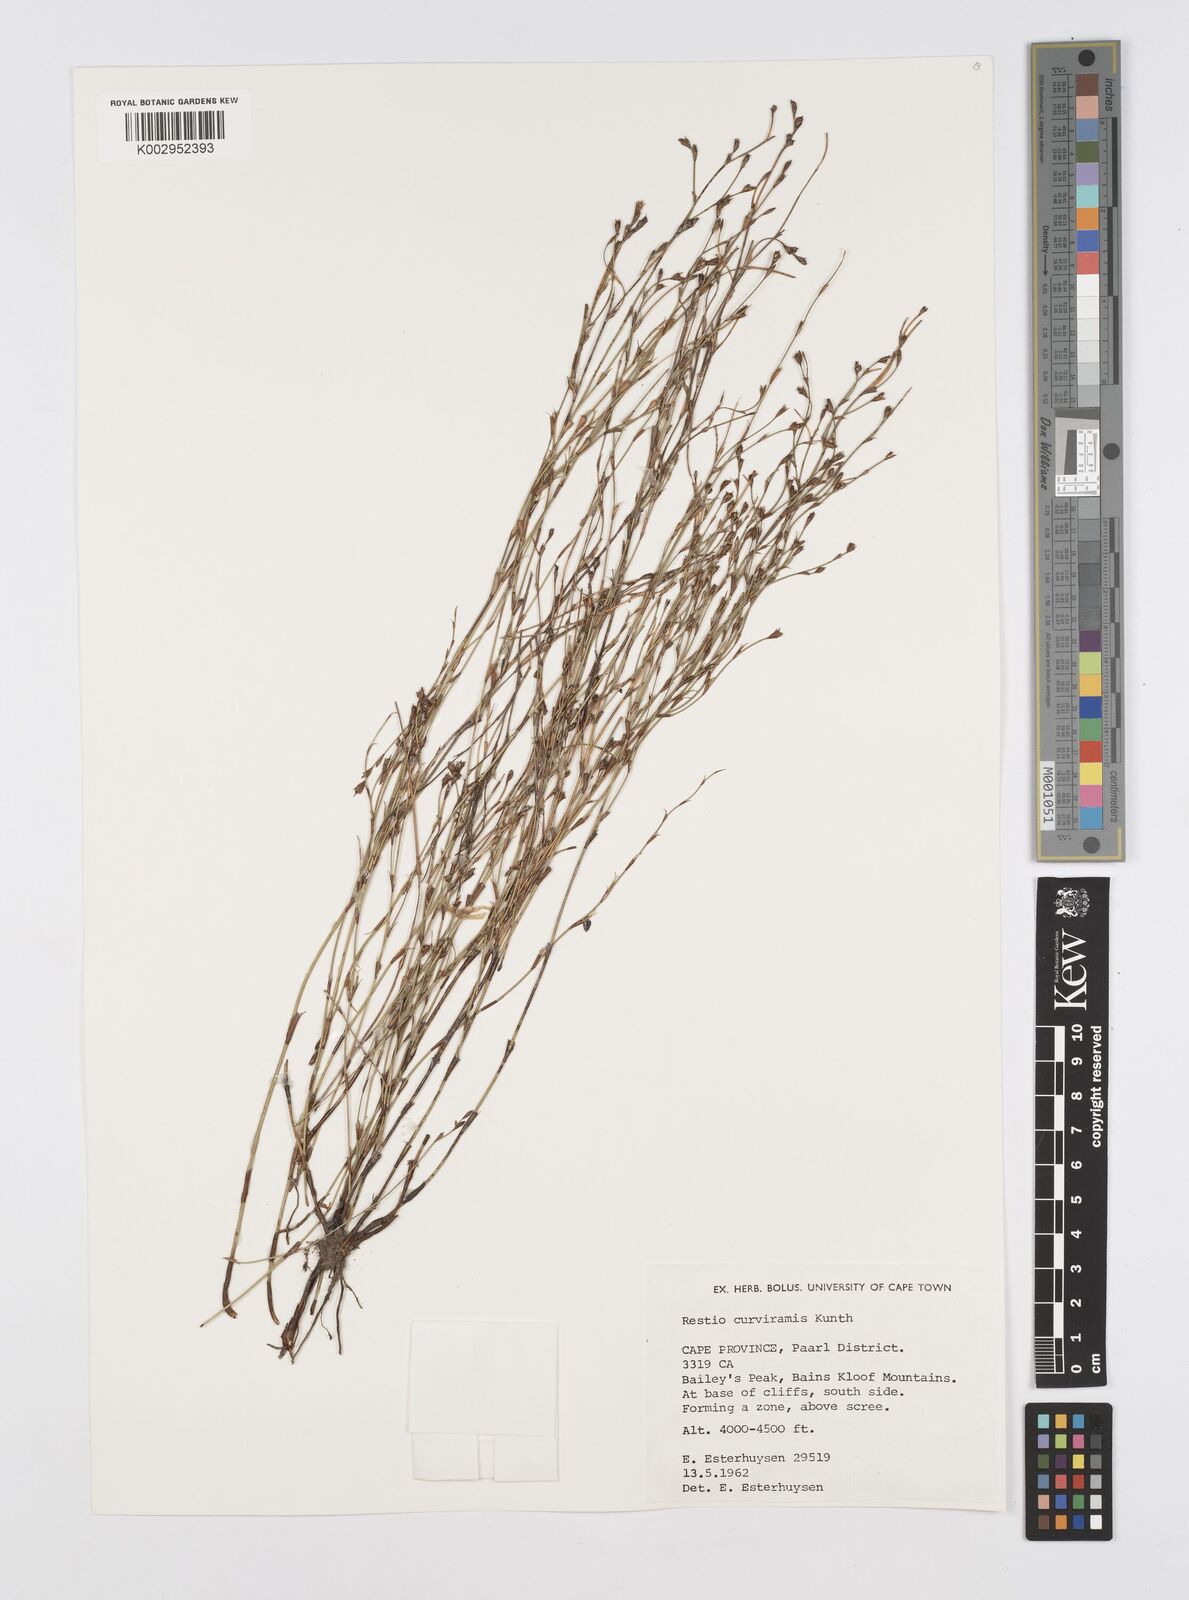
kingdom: Plantae
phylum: Tracheophyta
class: Liliopsida
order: Poales
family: Restionaceae
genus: Restio
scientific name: Restio curviramis
